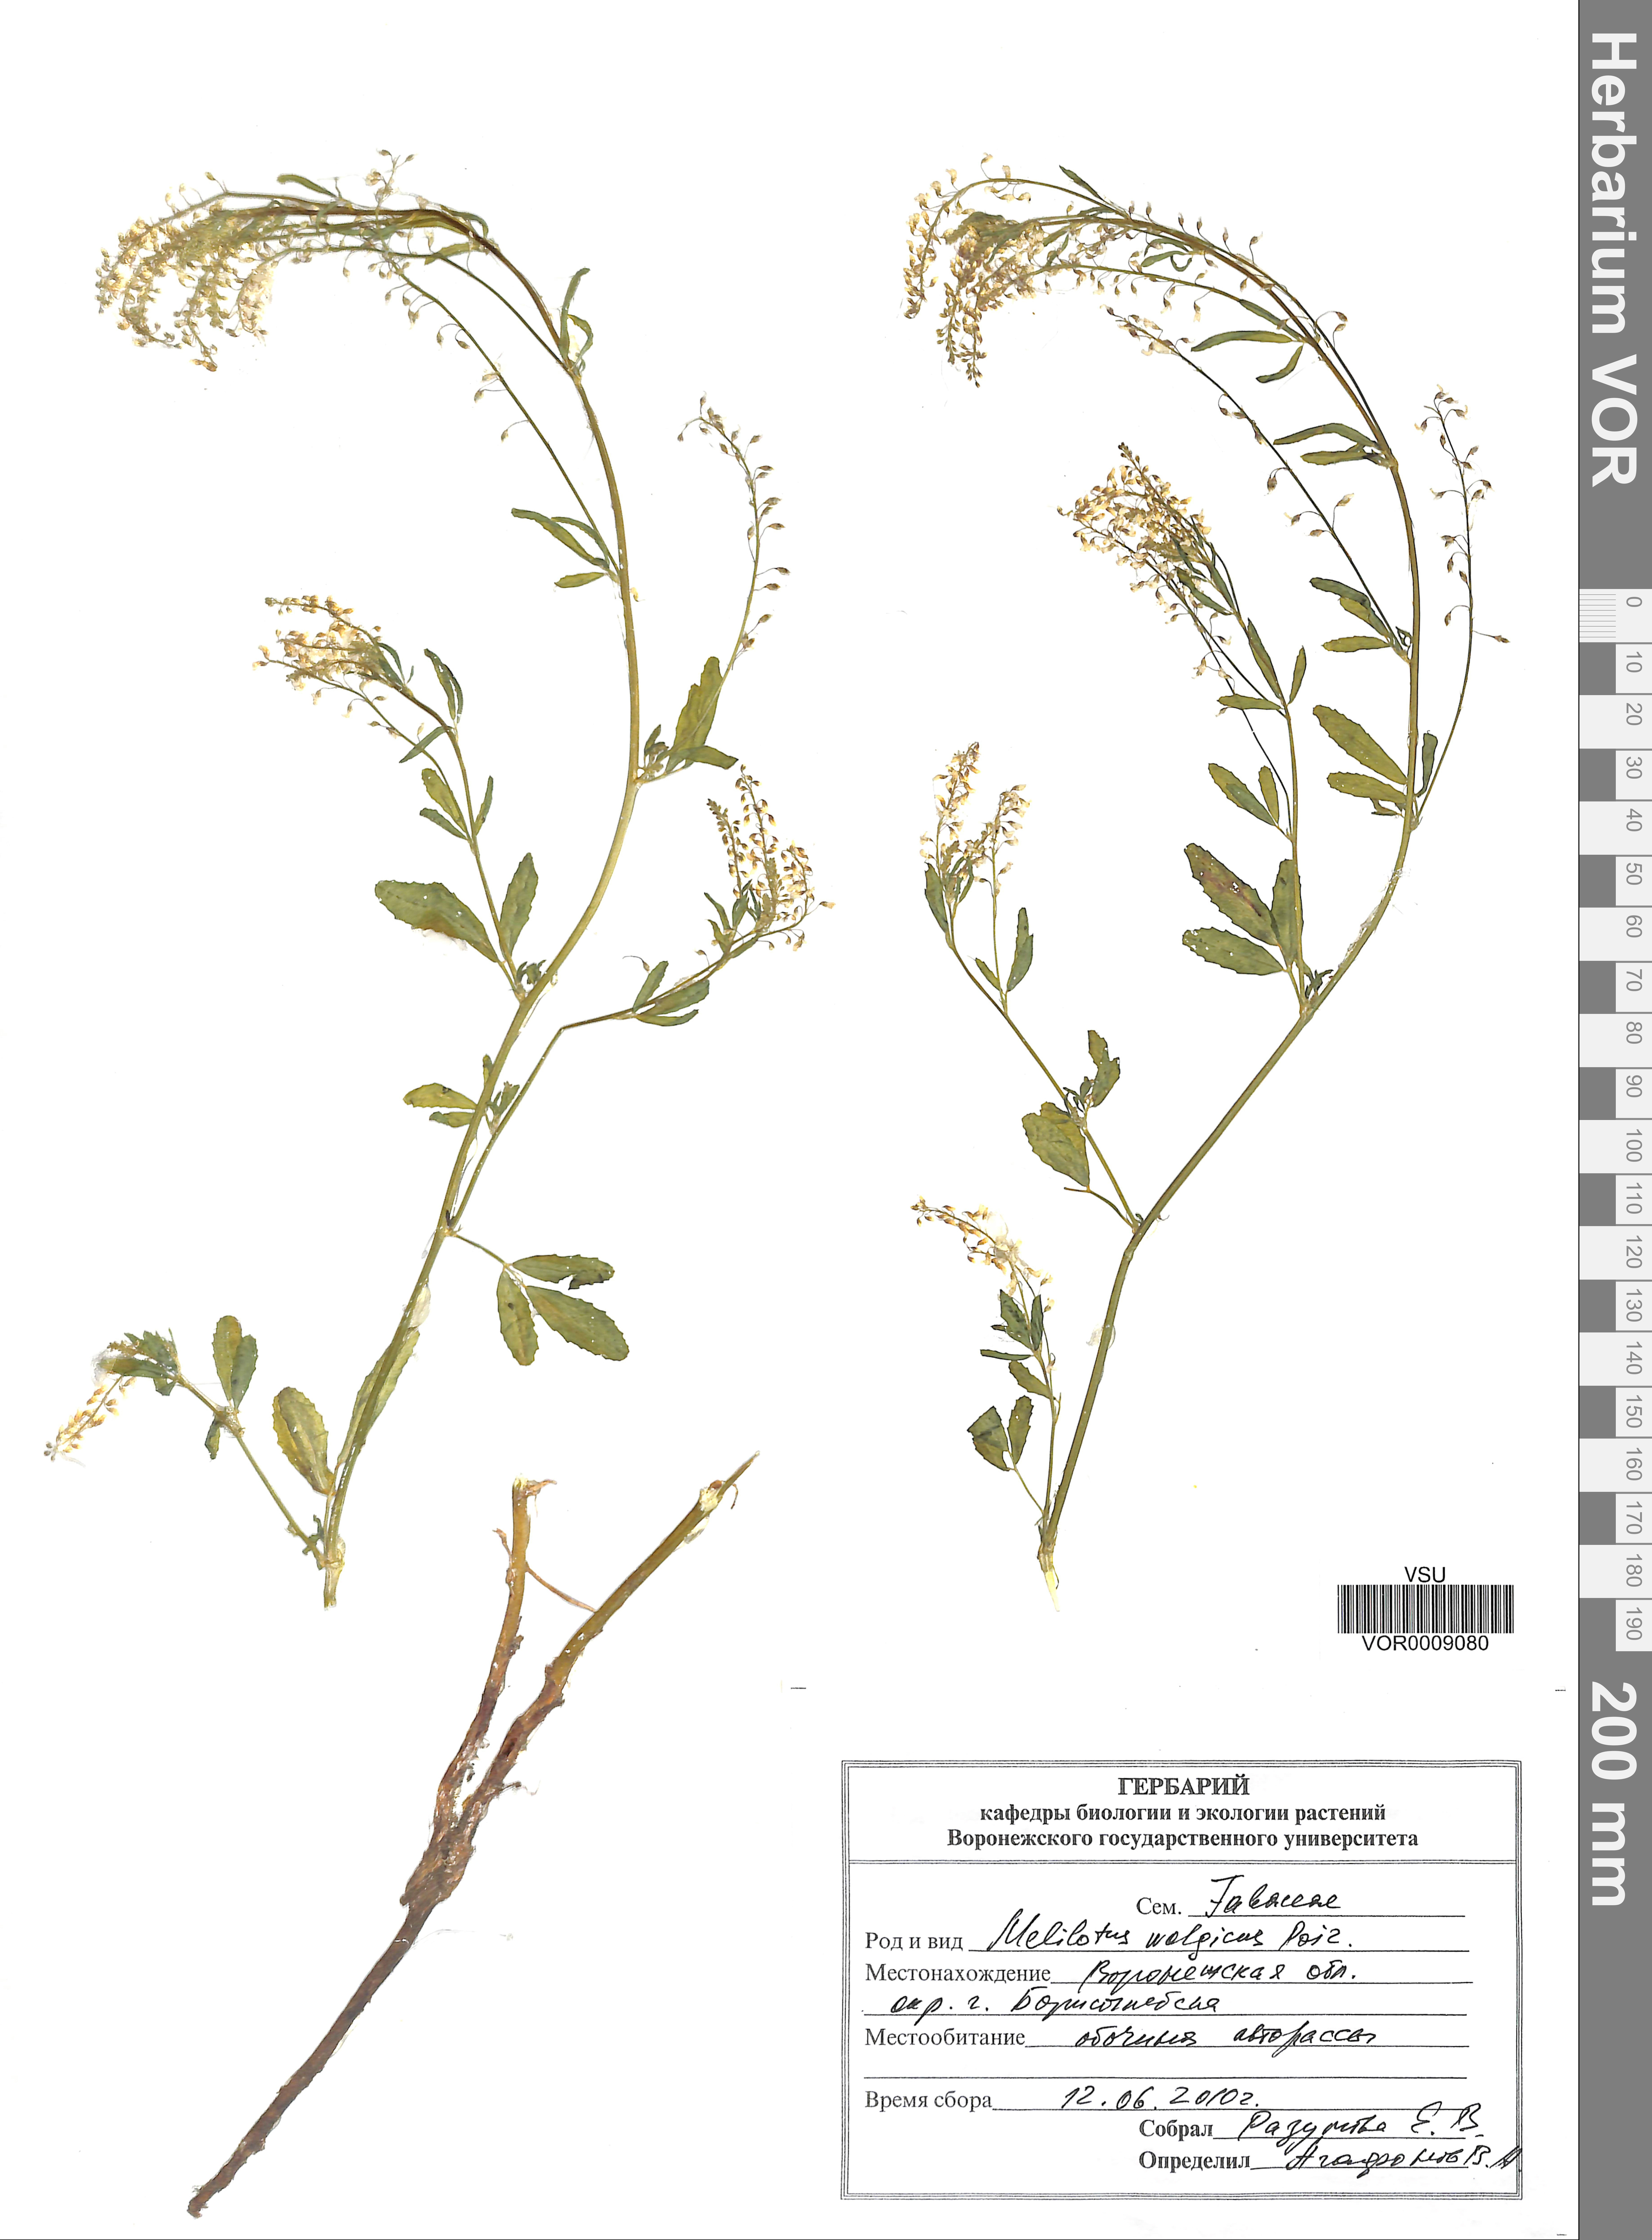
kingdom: Plantae
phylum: Tracheophyta
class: Magnoliopsida
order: Fabales
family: Fabaceae
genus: Melilotus
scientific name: Melilotus wolgicus
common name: Volga sweet-clover
